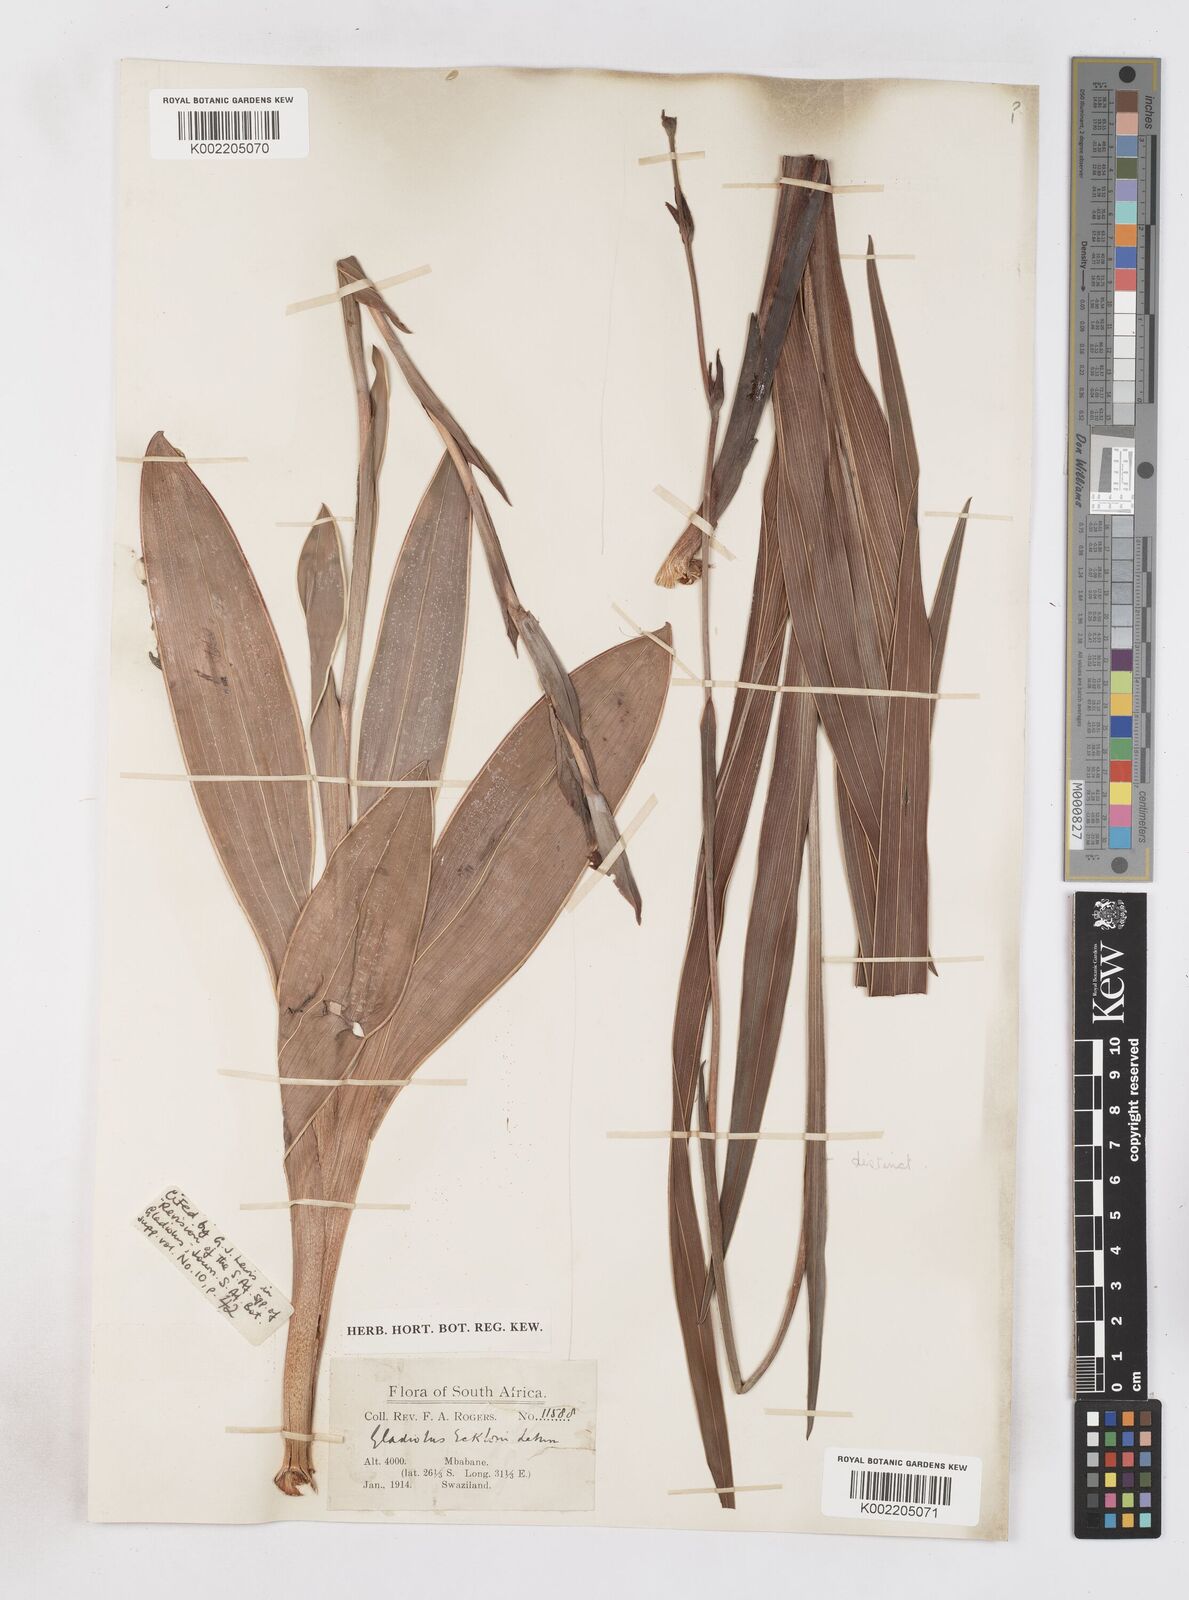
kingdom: Plantae
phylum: Tracheophyta
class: Liliopsida
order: Asparagales
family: Iridaceae
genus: Gladiolus
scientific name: Gladiolus ecklonii
